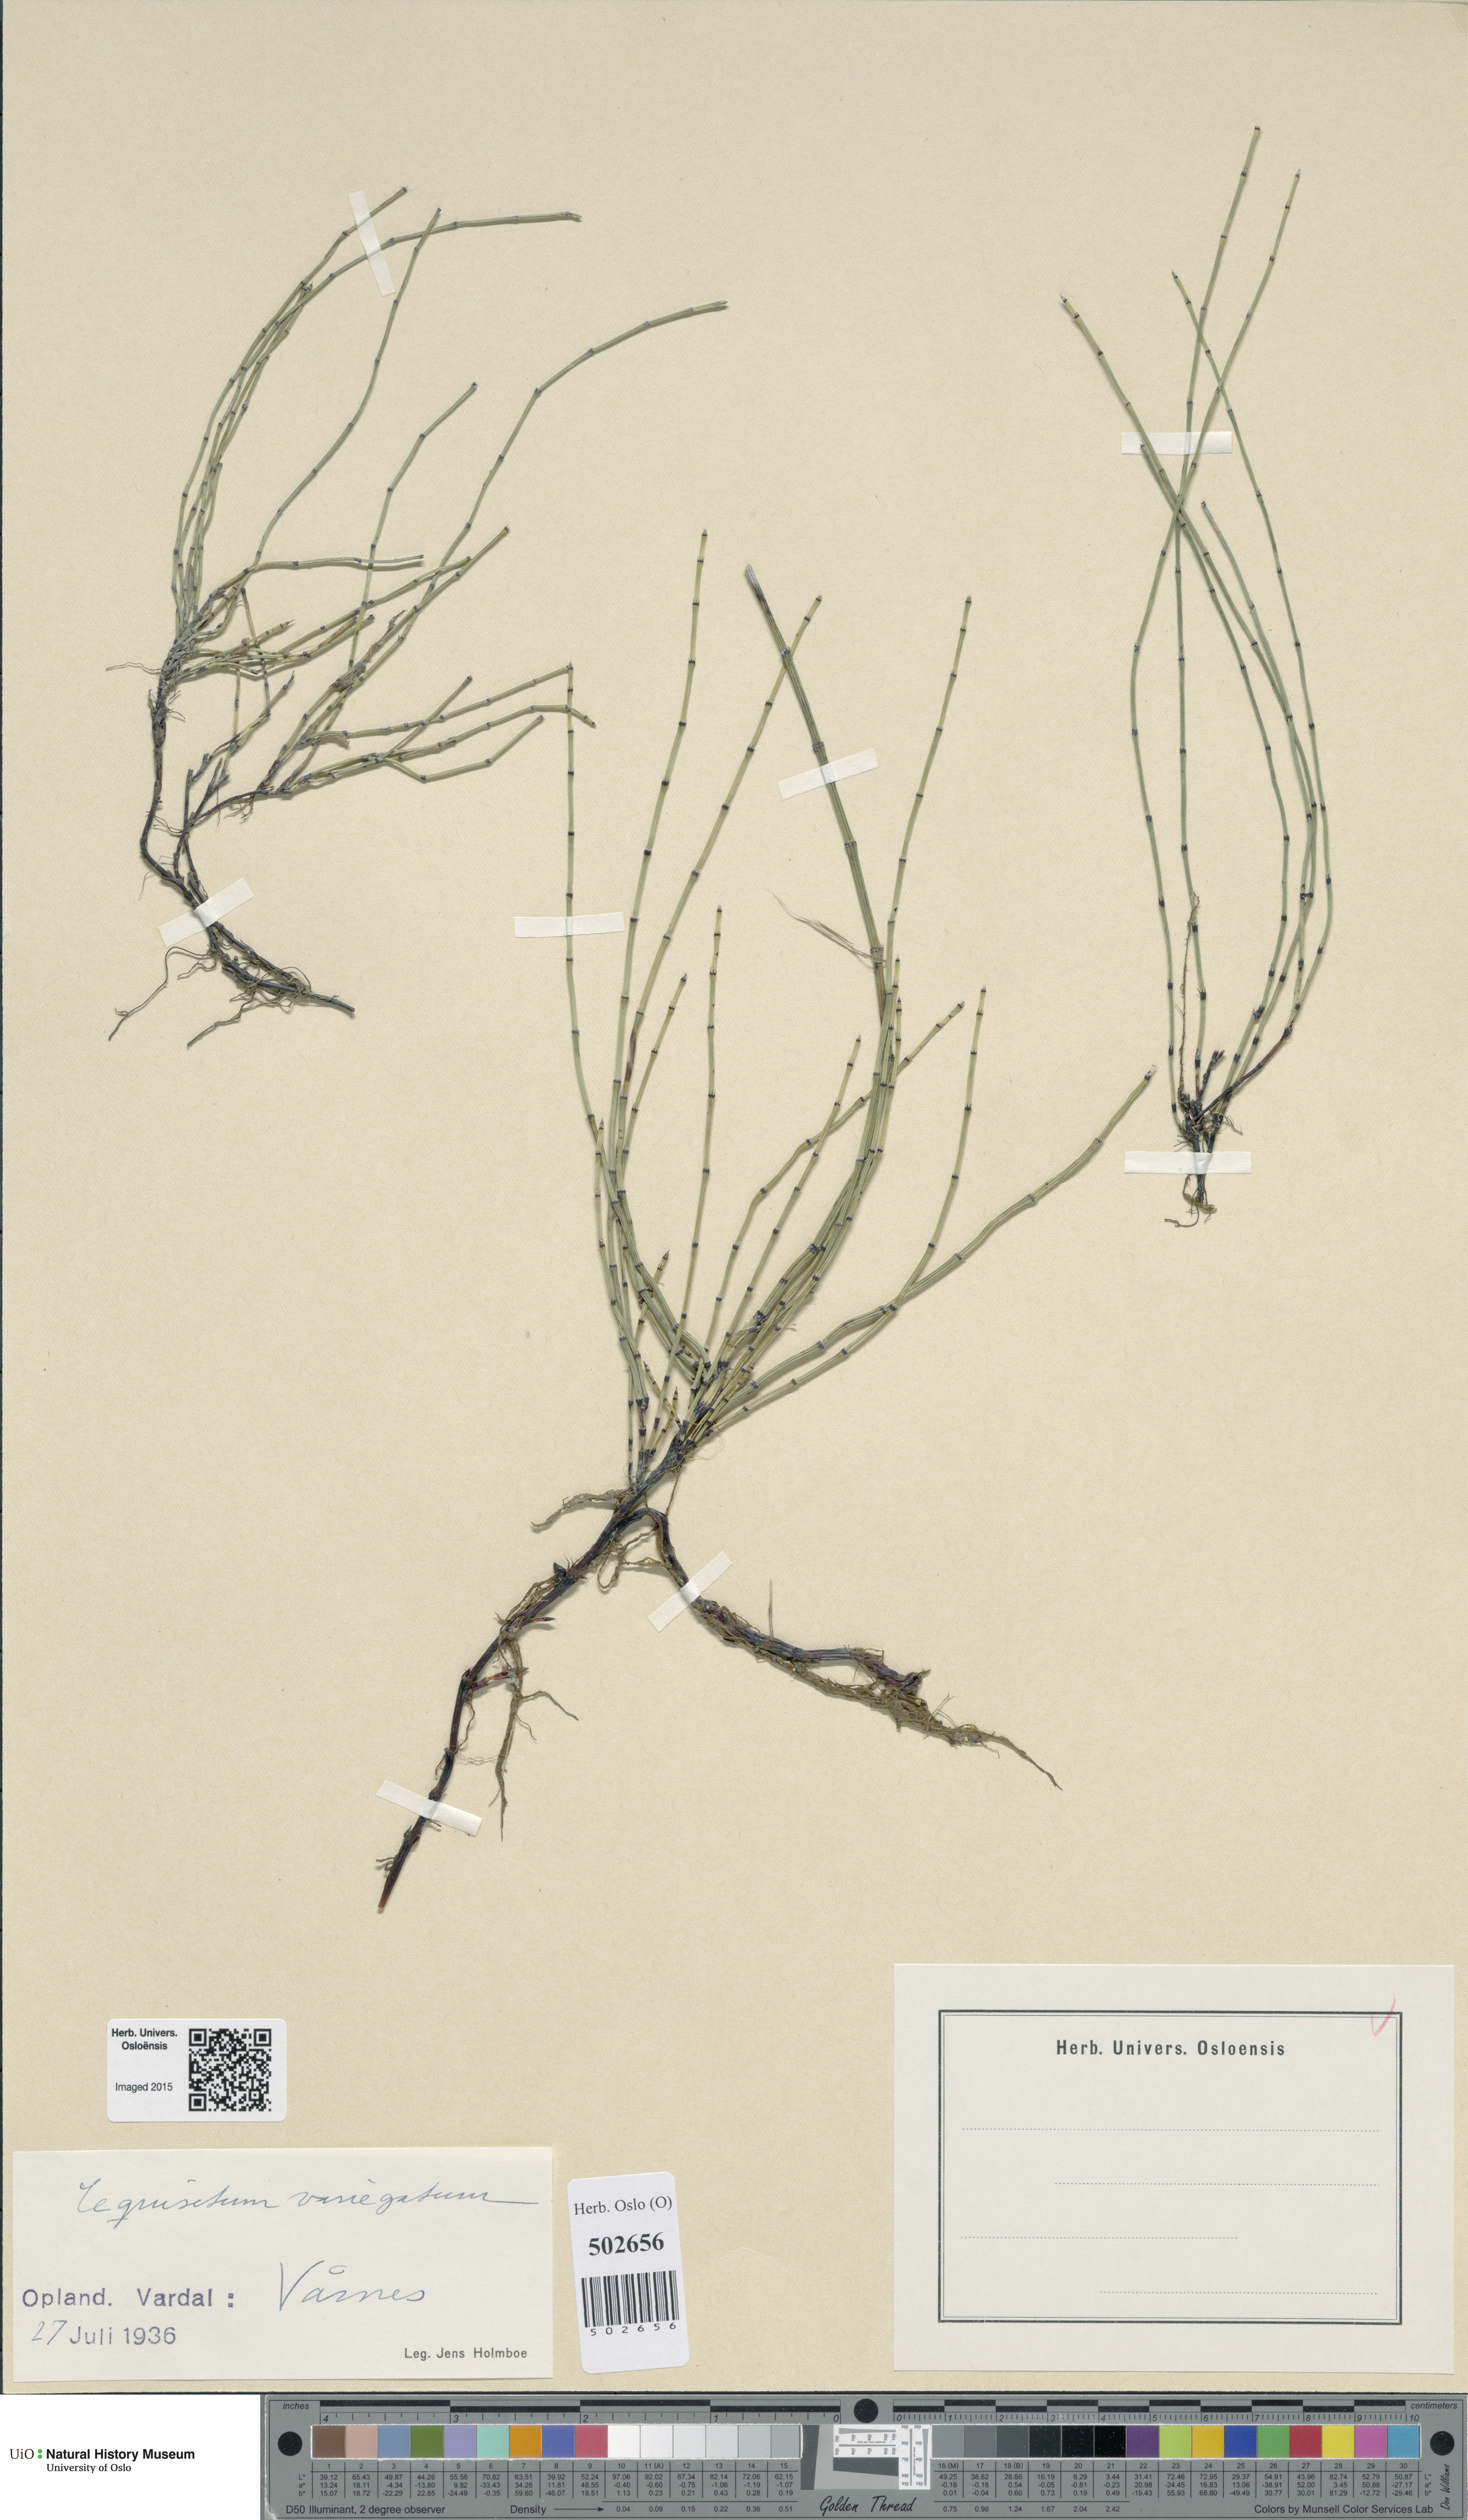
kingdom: Plantae
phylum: Tracheophyta
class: Polypodiopsida
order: Equisetales
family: Equisetaceae
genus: Equisetum
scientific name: Equisetum variegatum
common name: Variegated horsetail
